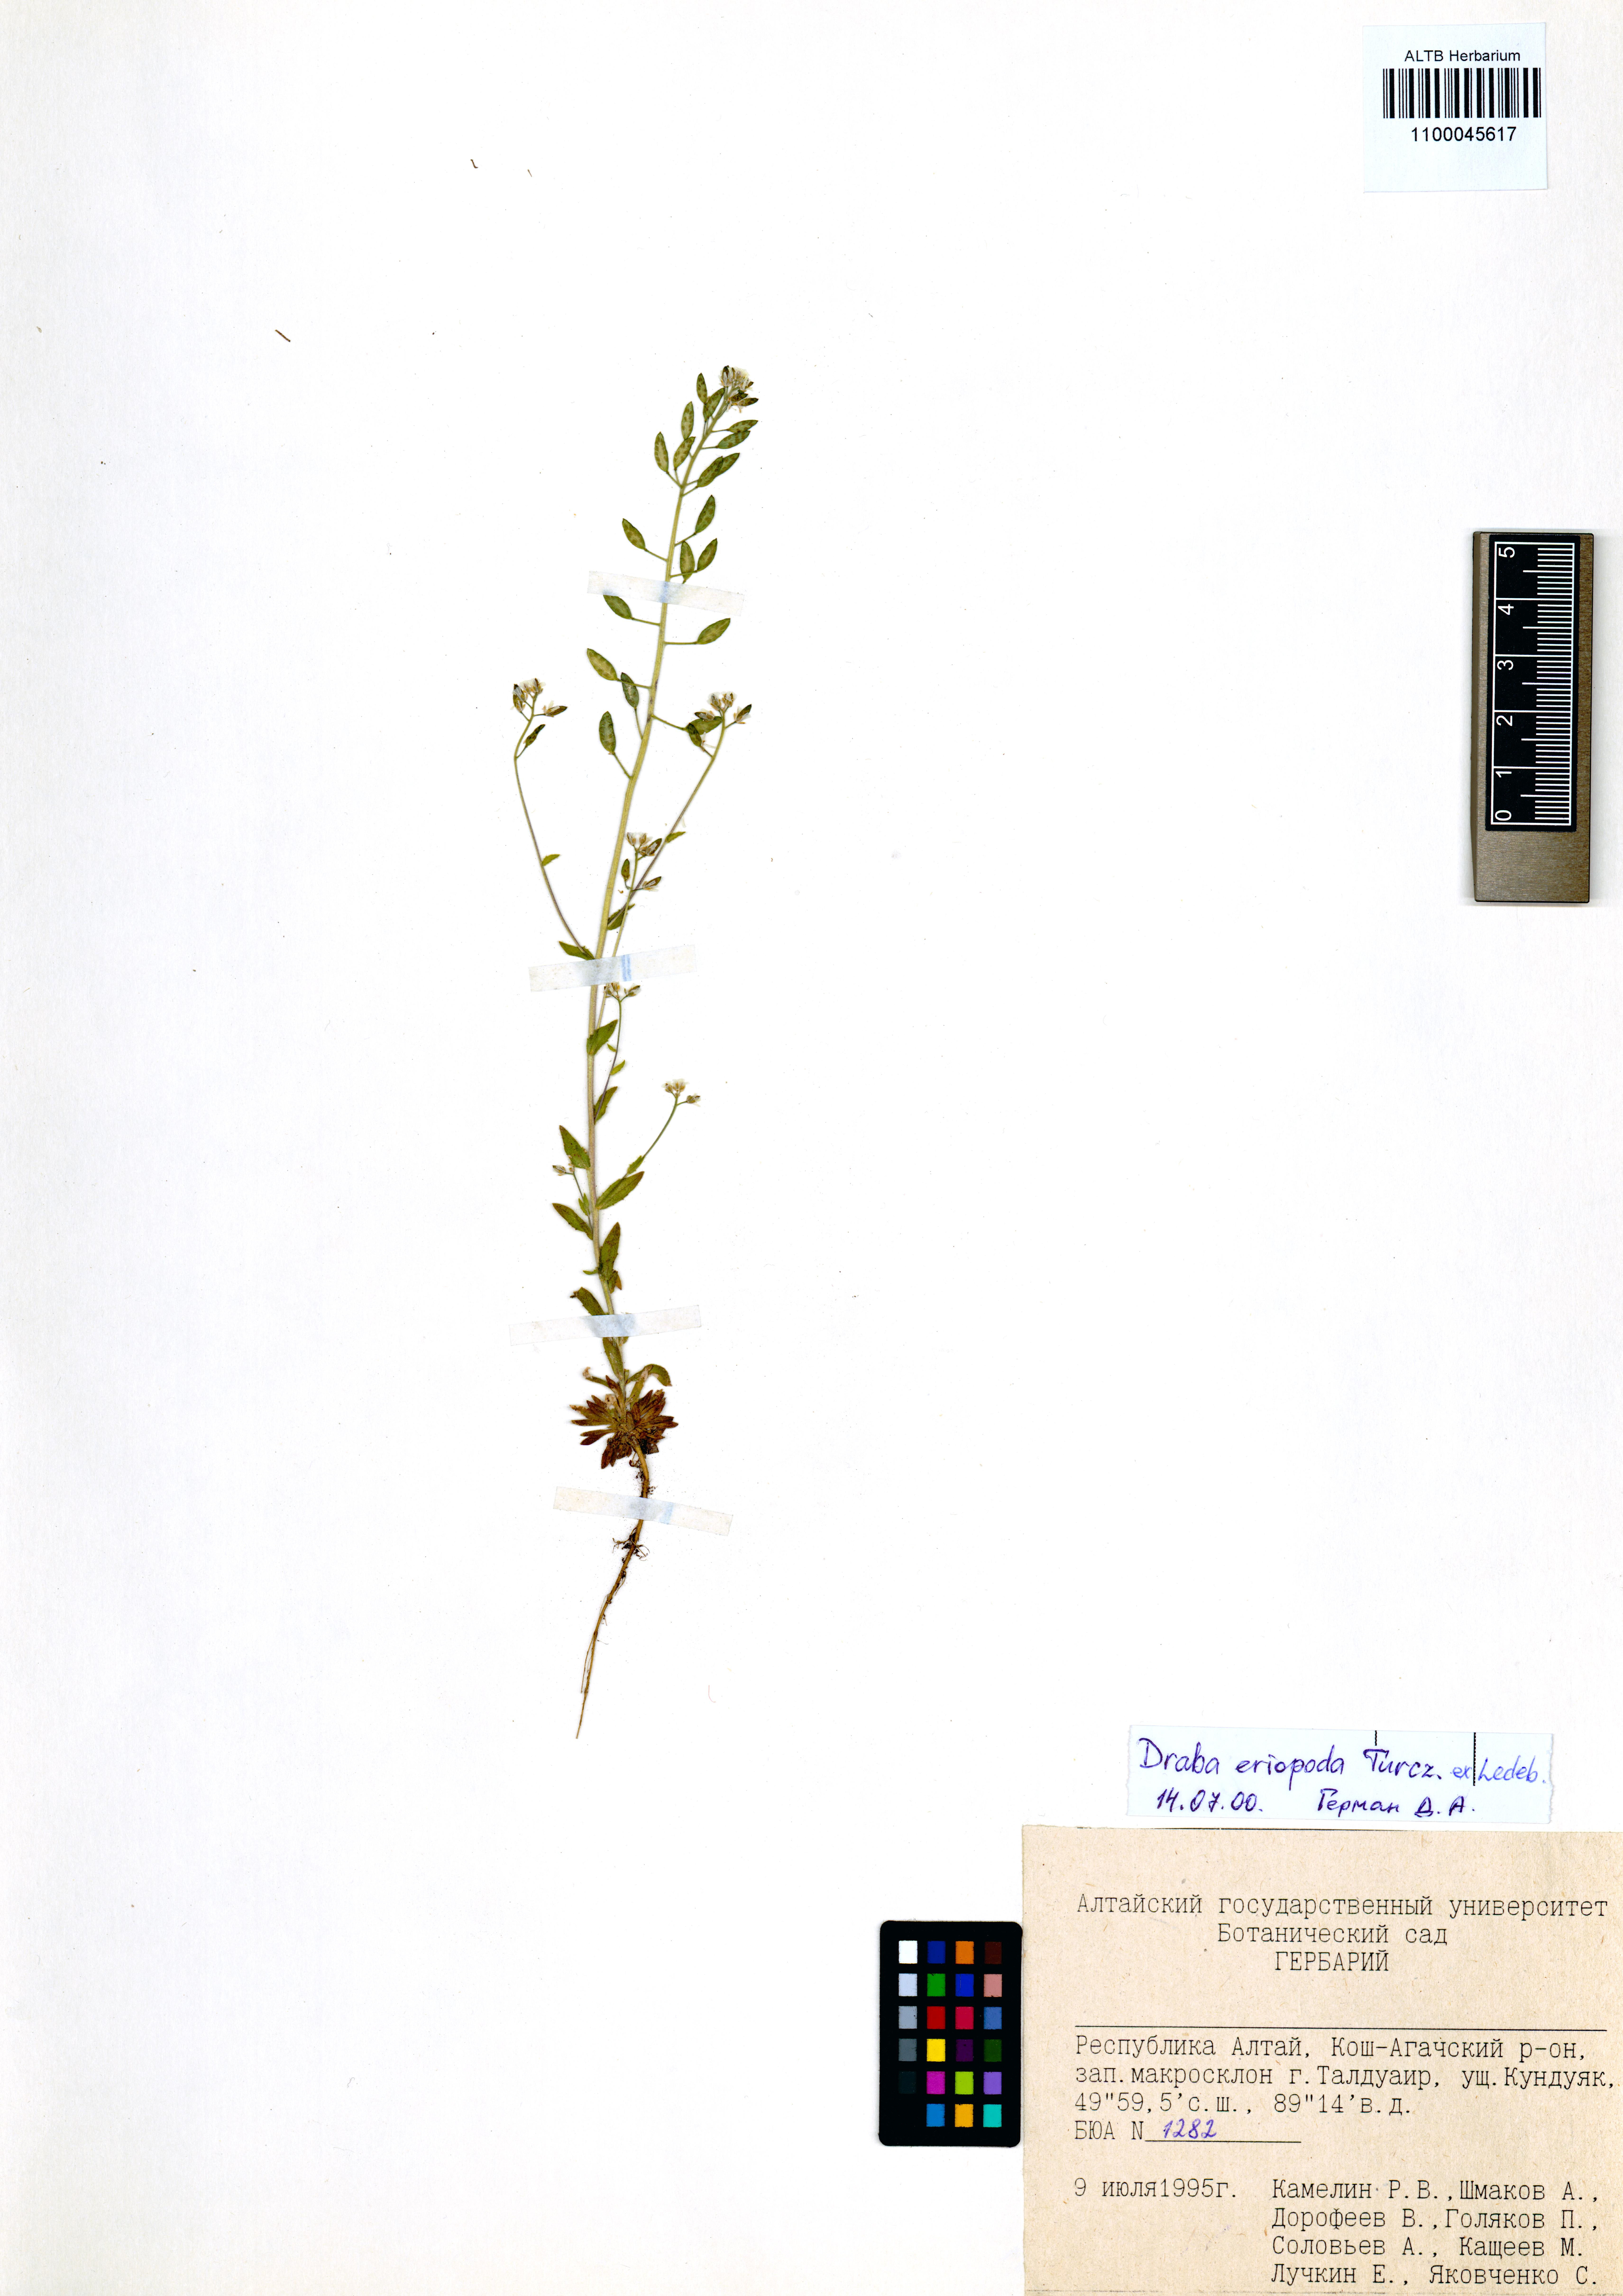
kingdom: Plantae
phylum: Tracheophyta
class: Magnoliopsida
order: Brassicales
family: Brassicaceae
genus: Draba
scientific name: Draba eriopoda
